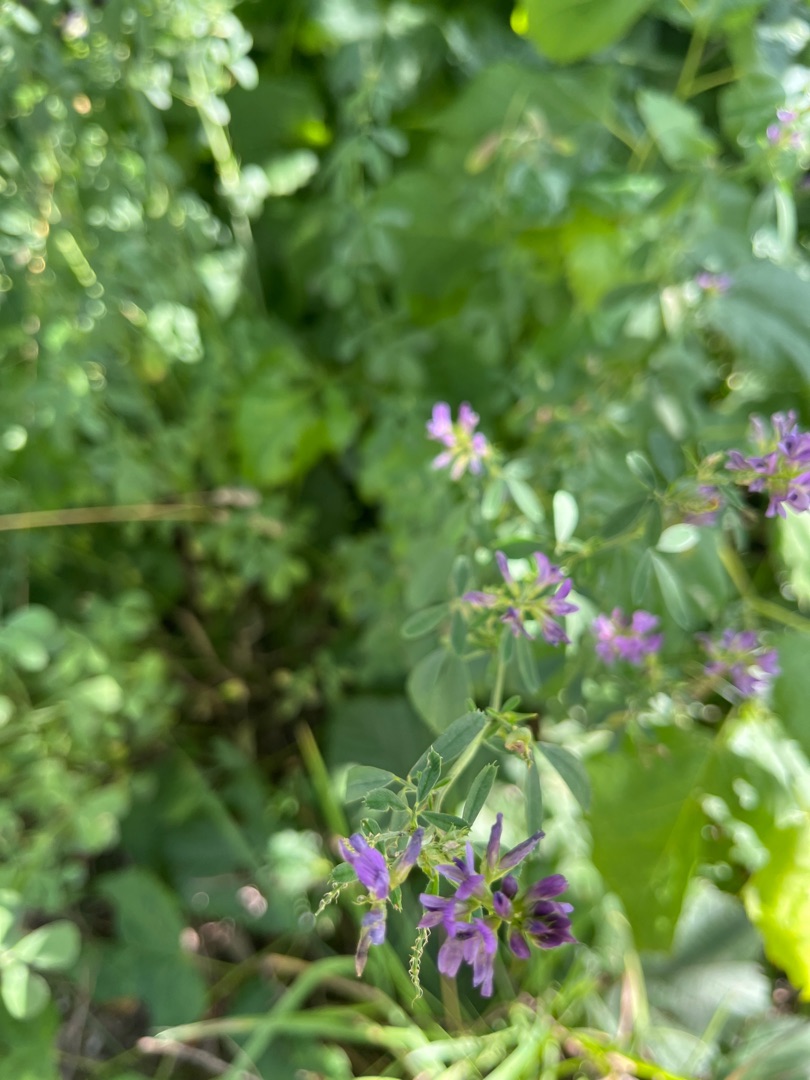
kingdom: Plantae
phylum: Tracheophyta
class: Magnoliopsida
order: Fabales
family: Fabaceae
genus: Medicago
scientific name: Medicago sativa
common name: Lucerne
